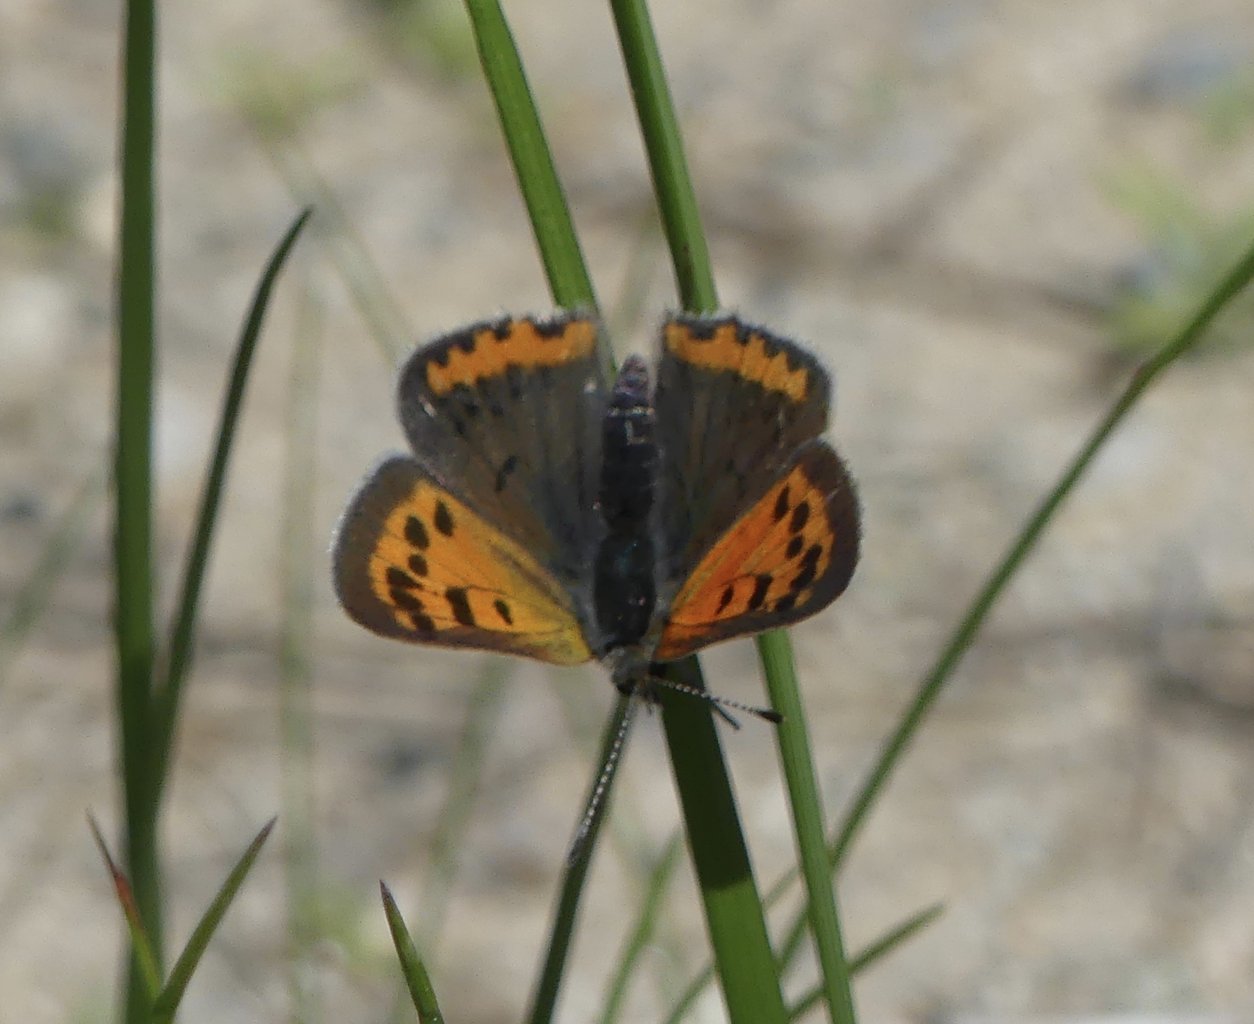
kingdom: Animalia
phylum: Arthropoda
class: Insecta
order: Lepidoptera
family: Lycaenidae
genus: Lycaena
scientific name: Lycaena phlaeas
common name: American Copper
